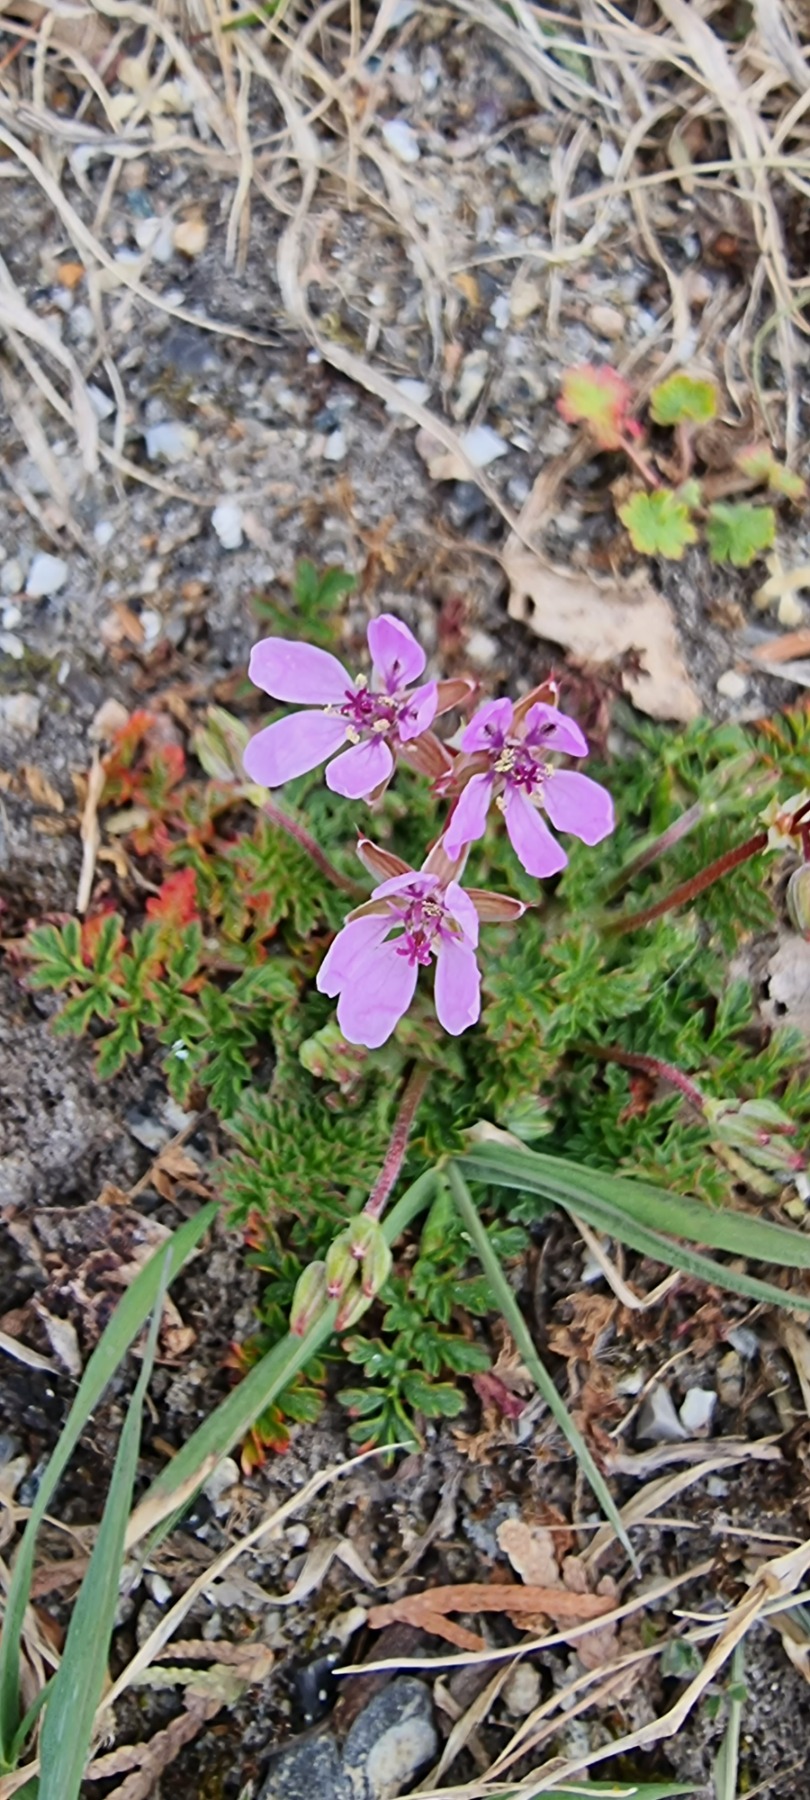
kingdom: Plantae
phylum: Tracheophyta
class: Magnoliopsida
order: Geraniales
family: Geraniaceae
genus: Erodium
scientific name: Erodium cicutarium
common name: Hejrenæb
